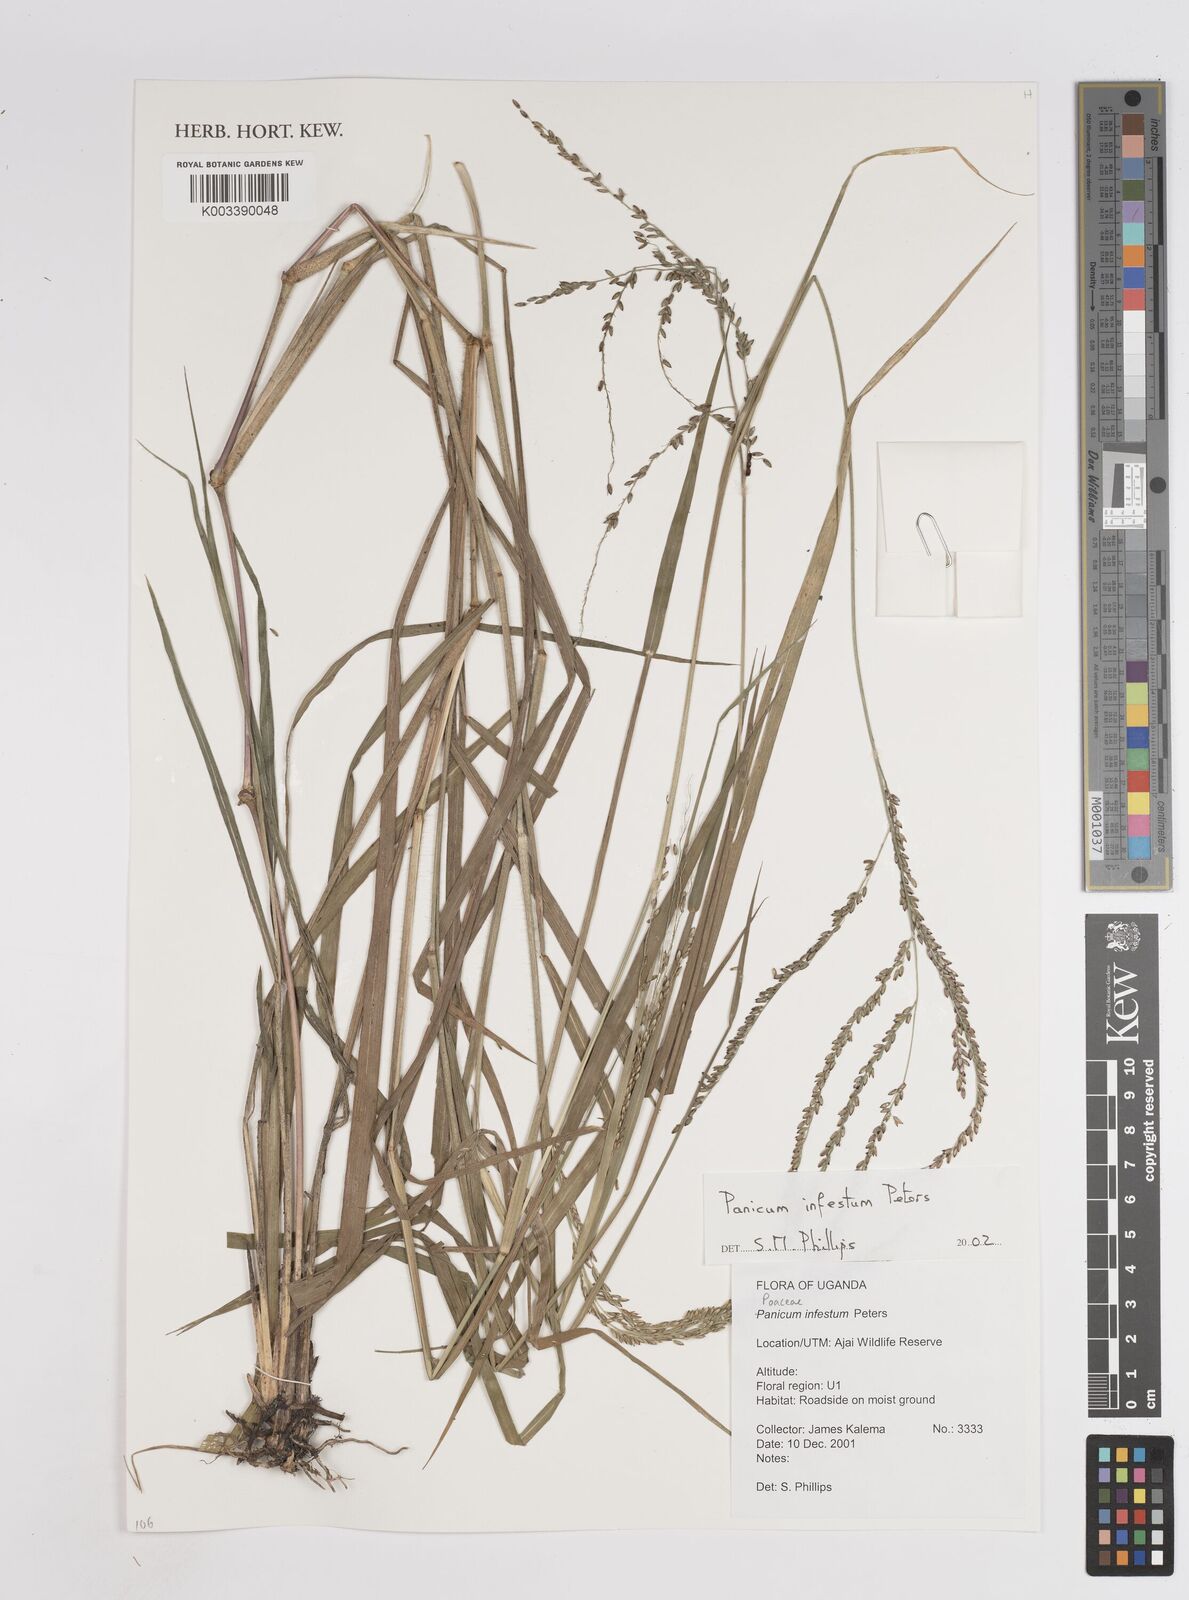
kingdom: Plantae
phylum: Tracheophyta
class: Liliopsida
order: Poales
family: Poaceae
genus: Megathyrsus
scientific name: Megathyrsus infestus
